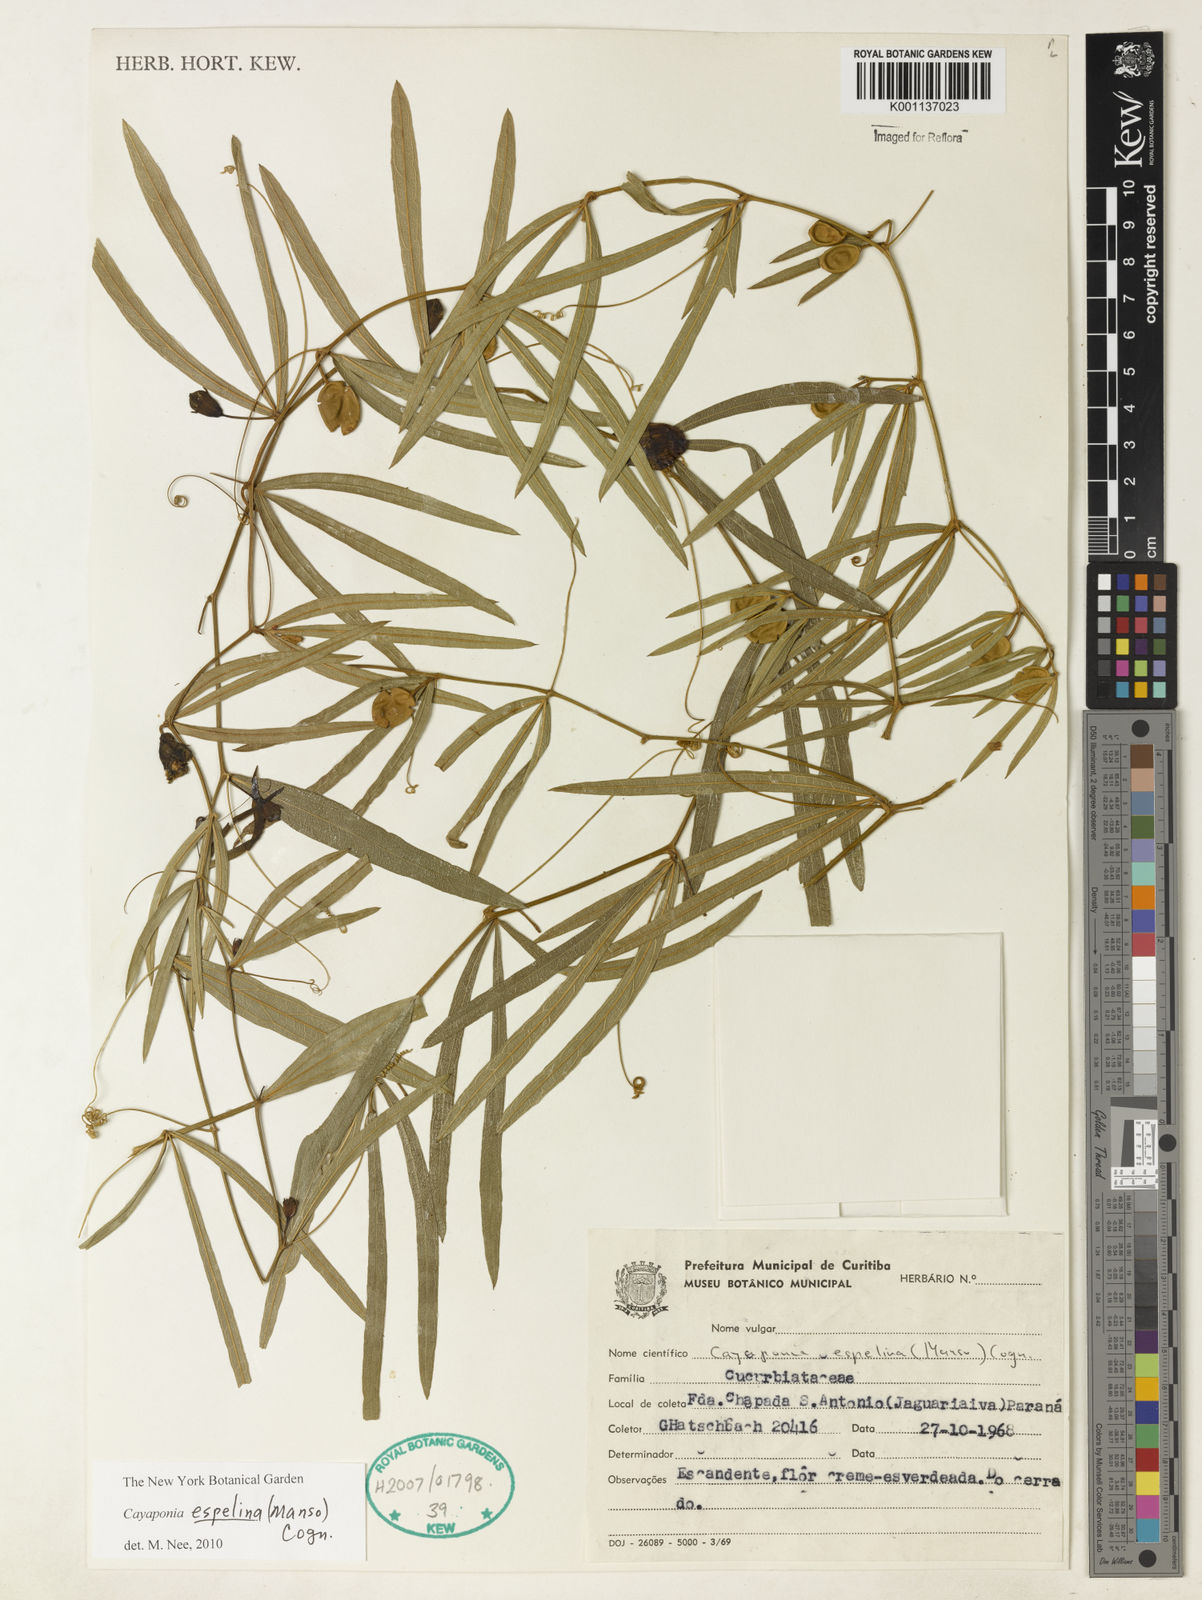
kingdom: Plantae
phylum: Tracheophyta
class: Magnoliopsida
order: Cucurbitales
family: Cucurbitaceae
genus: Cayaponia
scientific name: Cayaponia espelina
